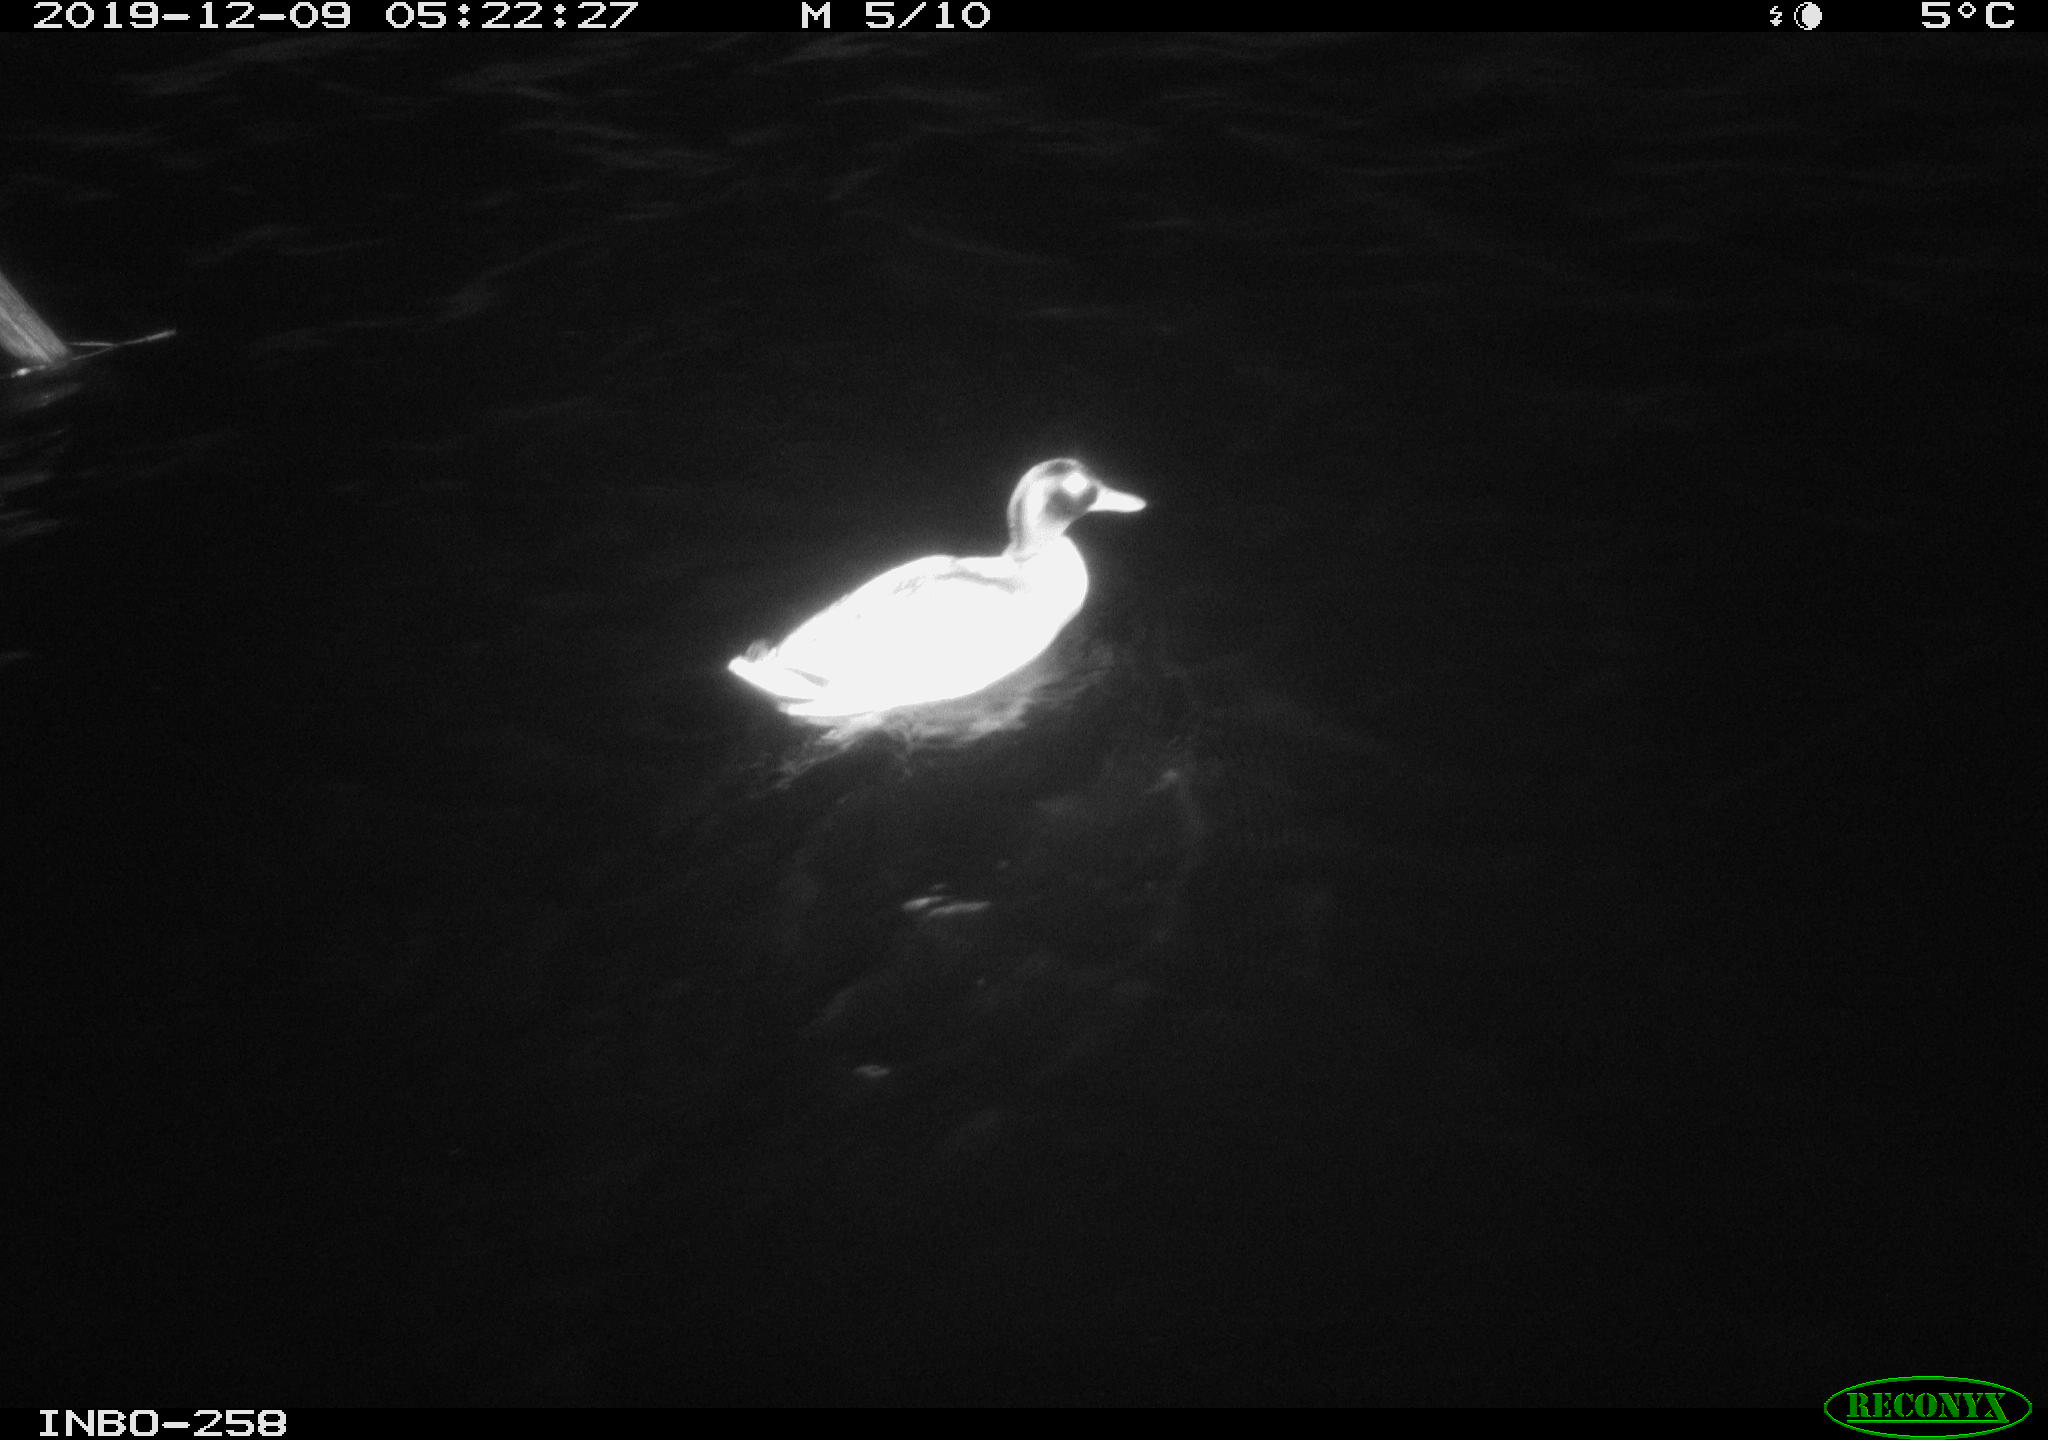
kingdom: Animalia
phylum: Chordata
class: Aves
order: Anseriformes
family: Anatidae
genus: Anas
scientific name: Anas platyrhynchos
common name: Mallard
